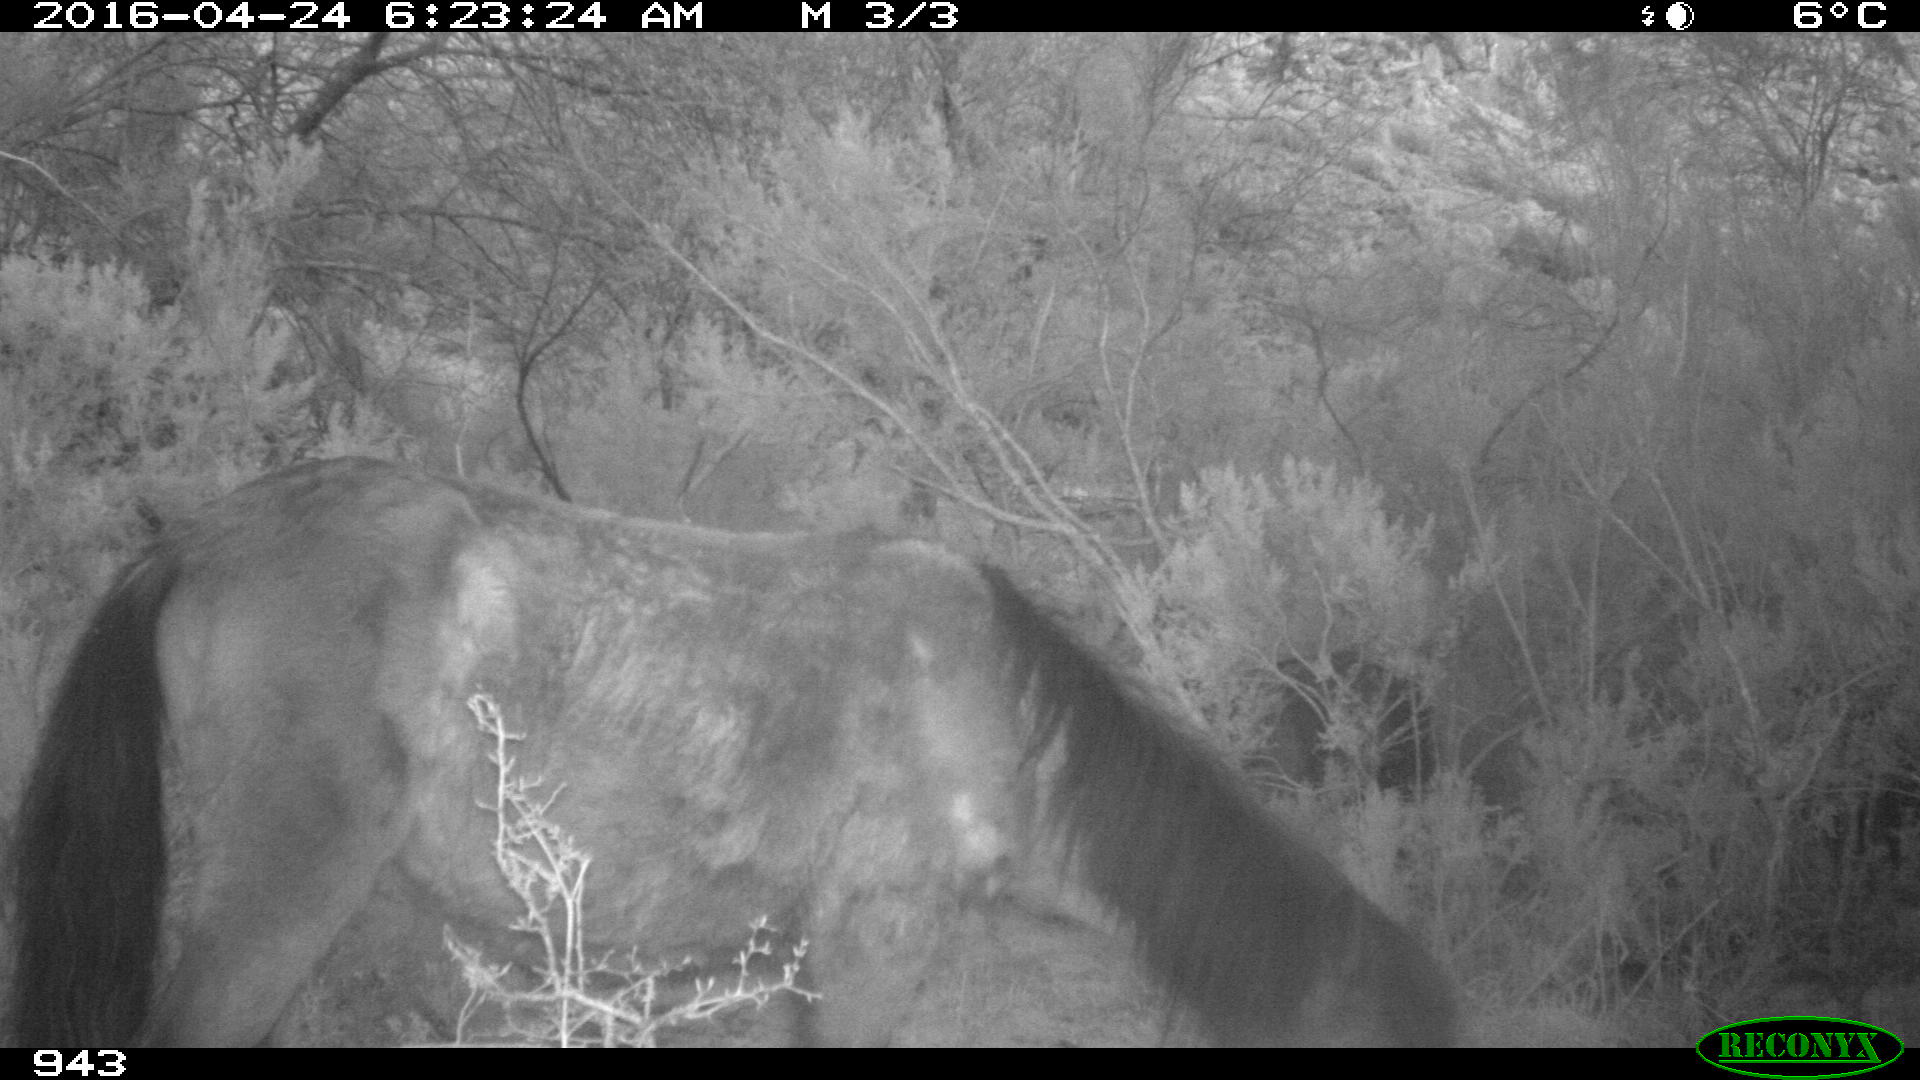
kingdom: Animalia
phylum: Chordata
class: Mammalia
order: Perissodactyla
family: Equidae
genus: Equus
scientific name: Equus caballus
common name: Horse
